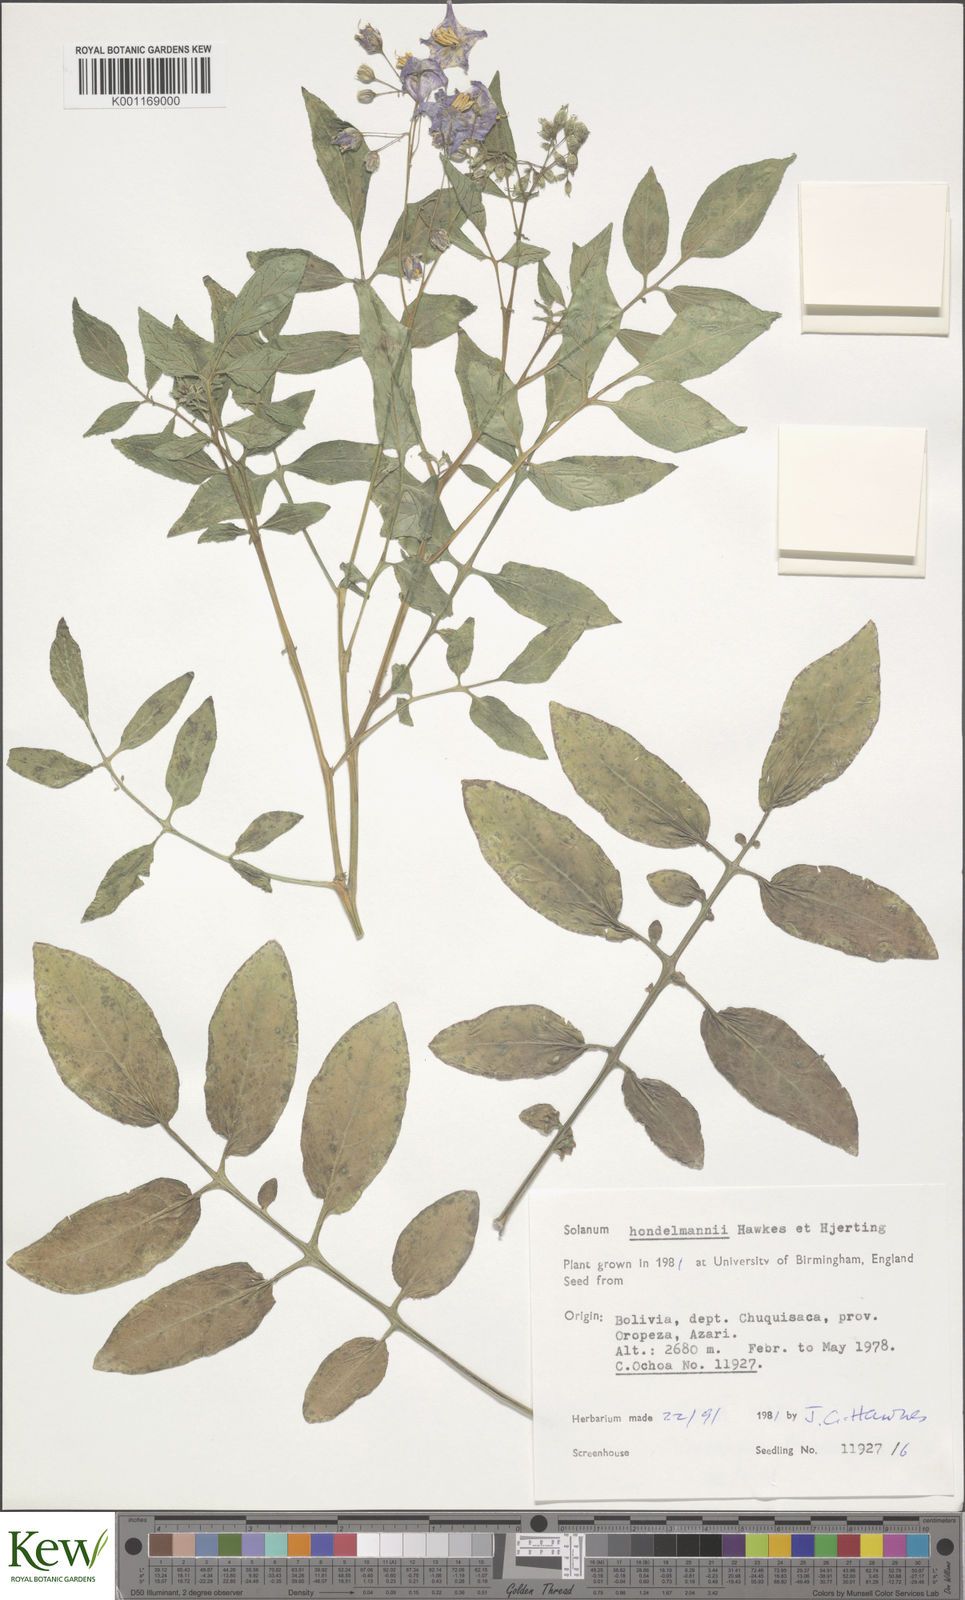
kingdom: Plantae
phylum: Tracheophyta
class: Magnoliopsida
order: Solanales
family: Solanaceae
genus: Solanum
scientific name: Solanum brevicaule
